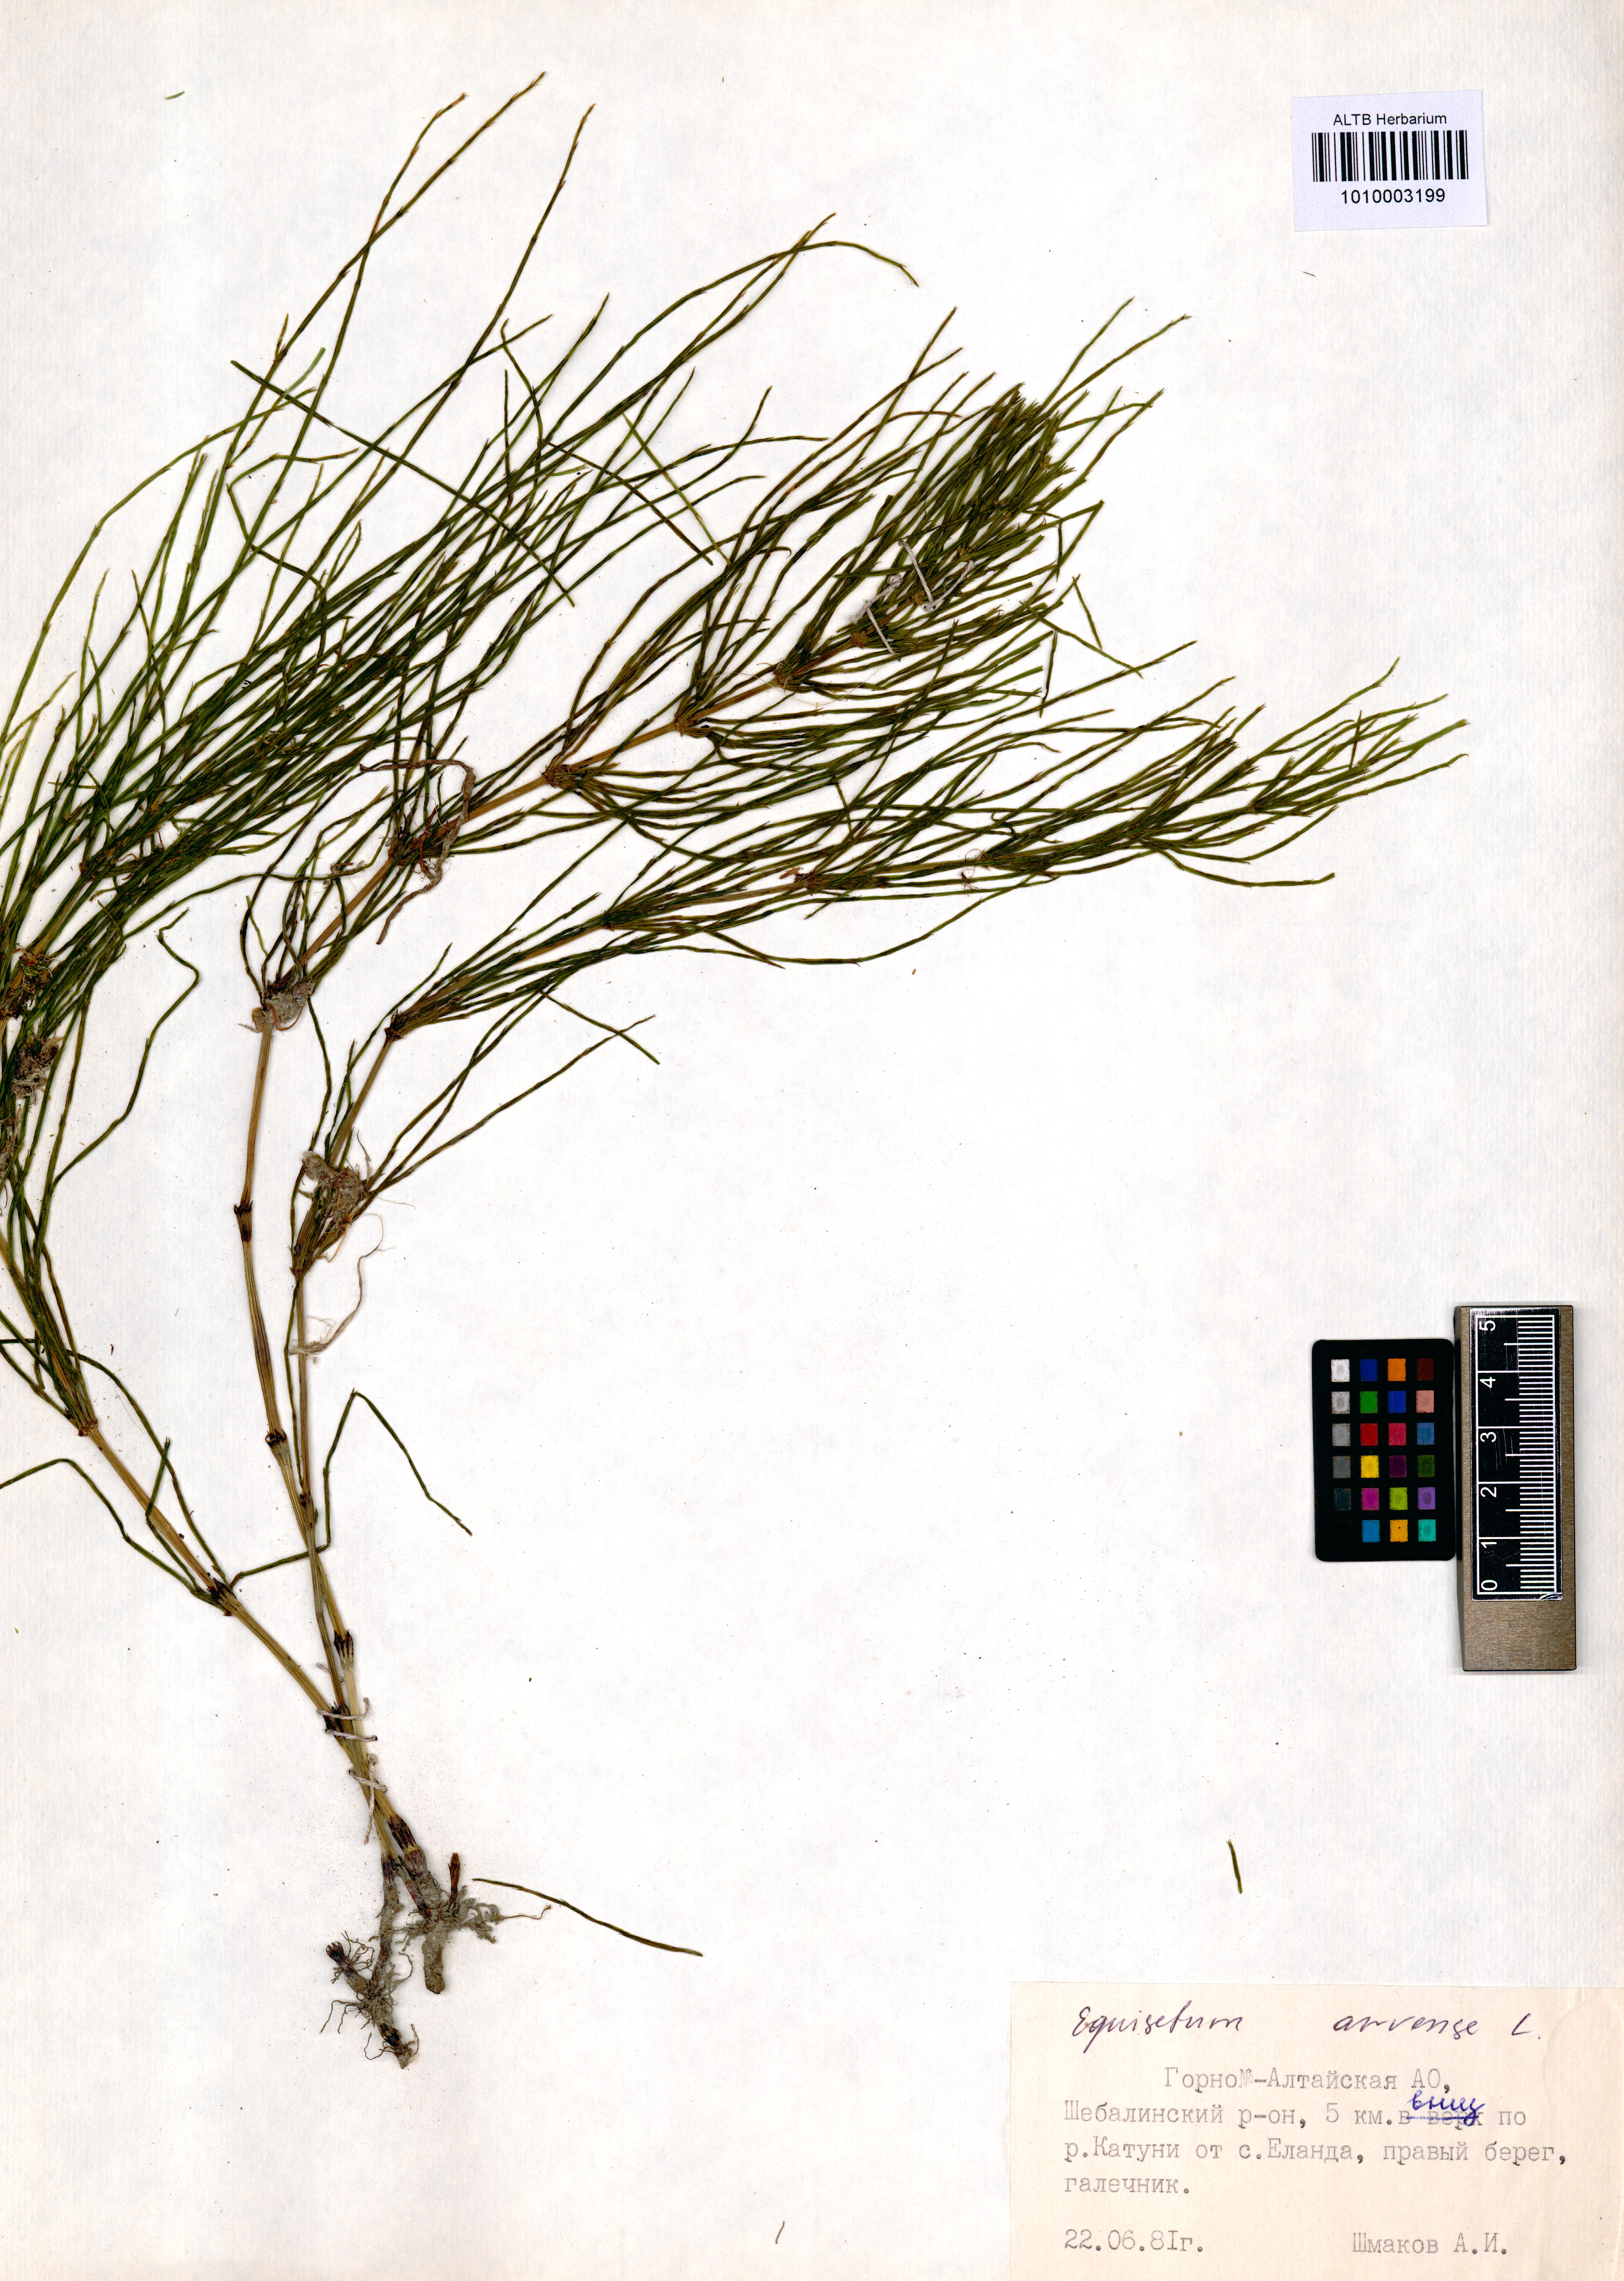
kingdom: Plantae
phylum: Tracheophyta
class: Polypodiopsida
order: Equisetales
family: Equisetaceae
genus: Equisetum
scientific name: Equisetum arvense
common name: Field horsetail
